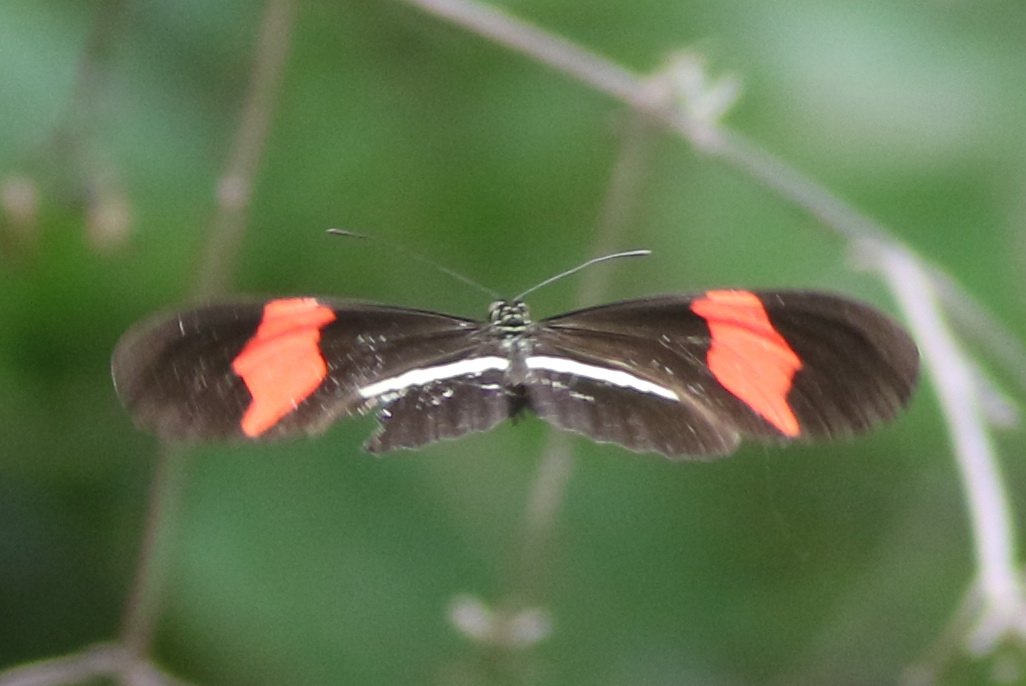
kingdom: Animalia
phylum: Arthropoda
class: Insecta
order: Lepidoptera
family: Nymphalidae
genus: Heliconius
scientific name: Heliconius erato
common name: Erato Heliconian
